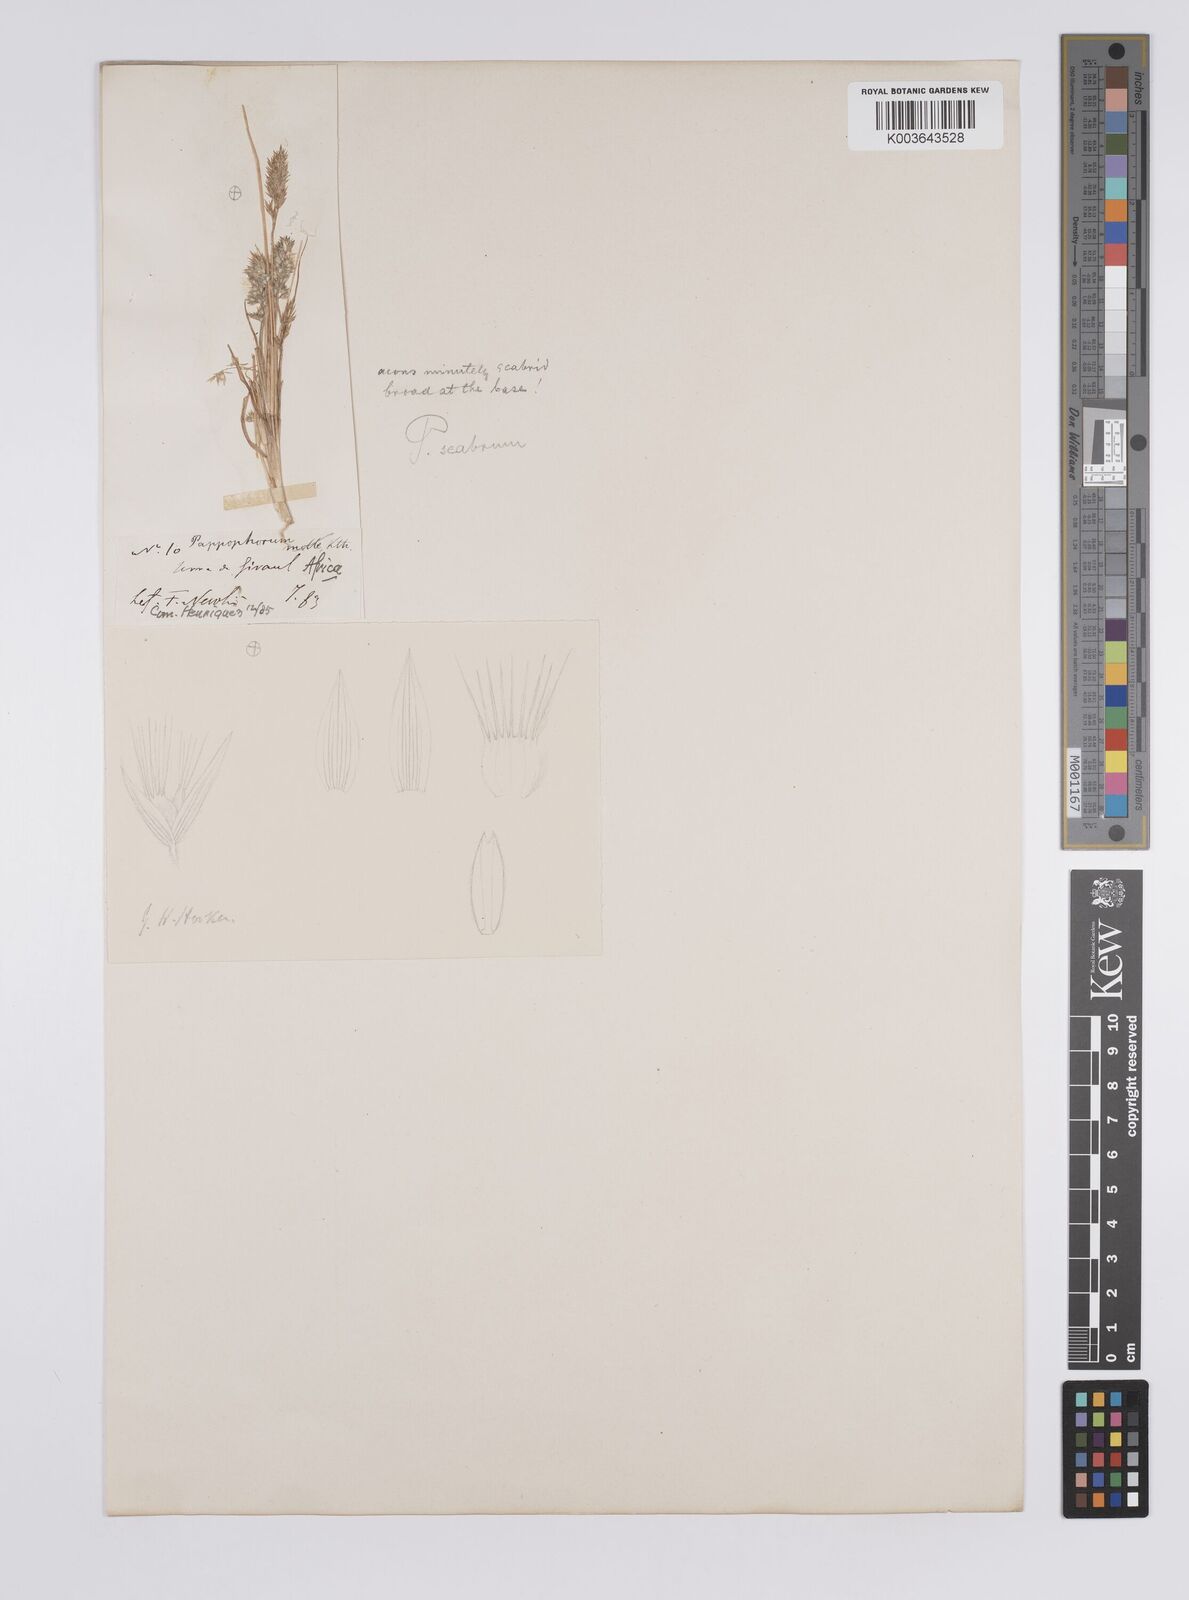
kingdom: Plantae
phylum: Tracheophyta
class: Liliopsida
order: Poales
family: Poaceae
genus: Enneapogon
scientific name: Enneapogon scaber
